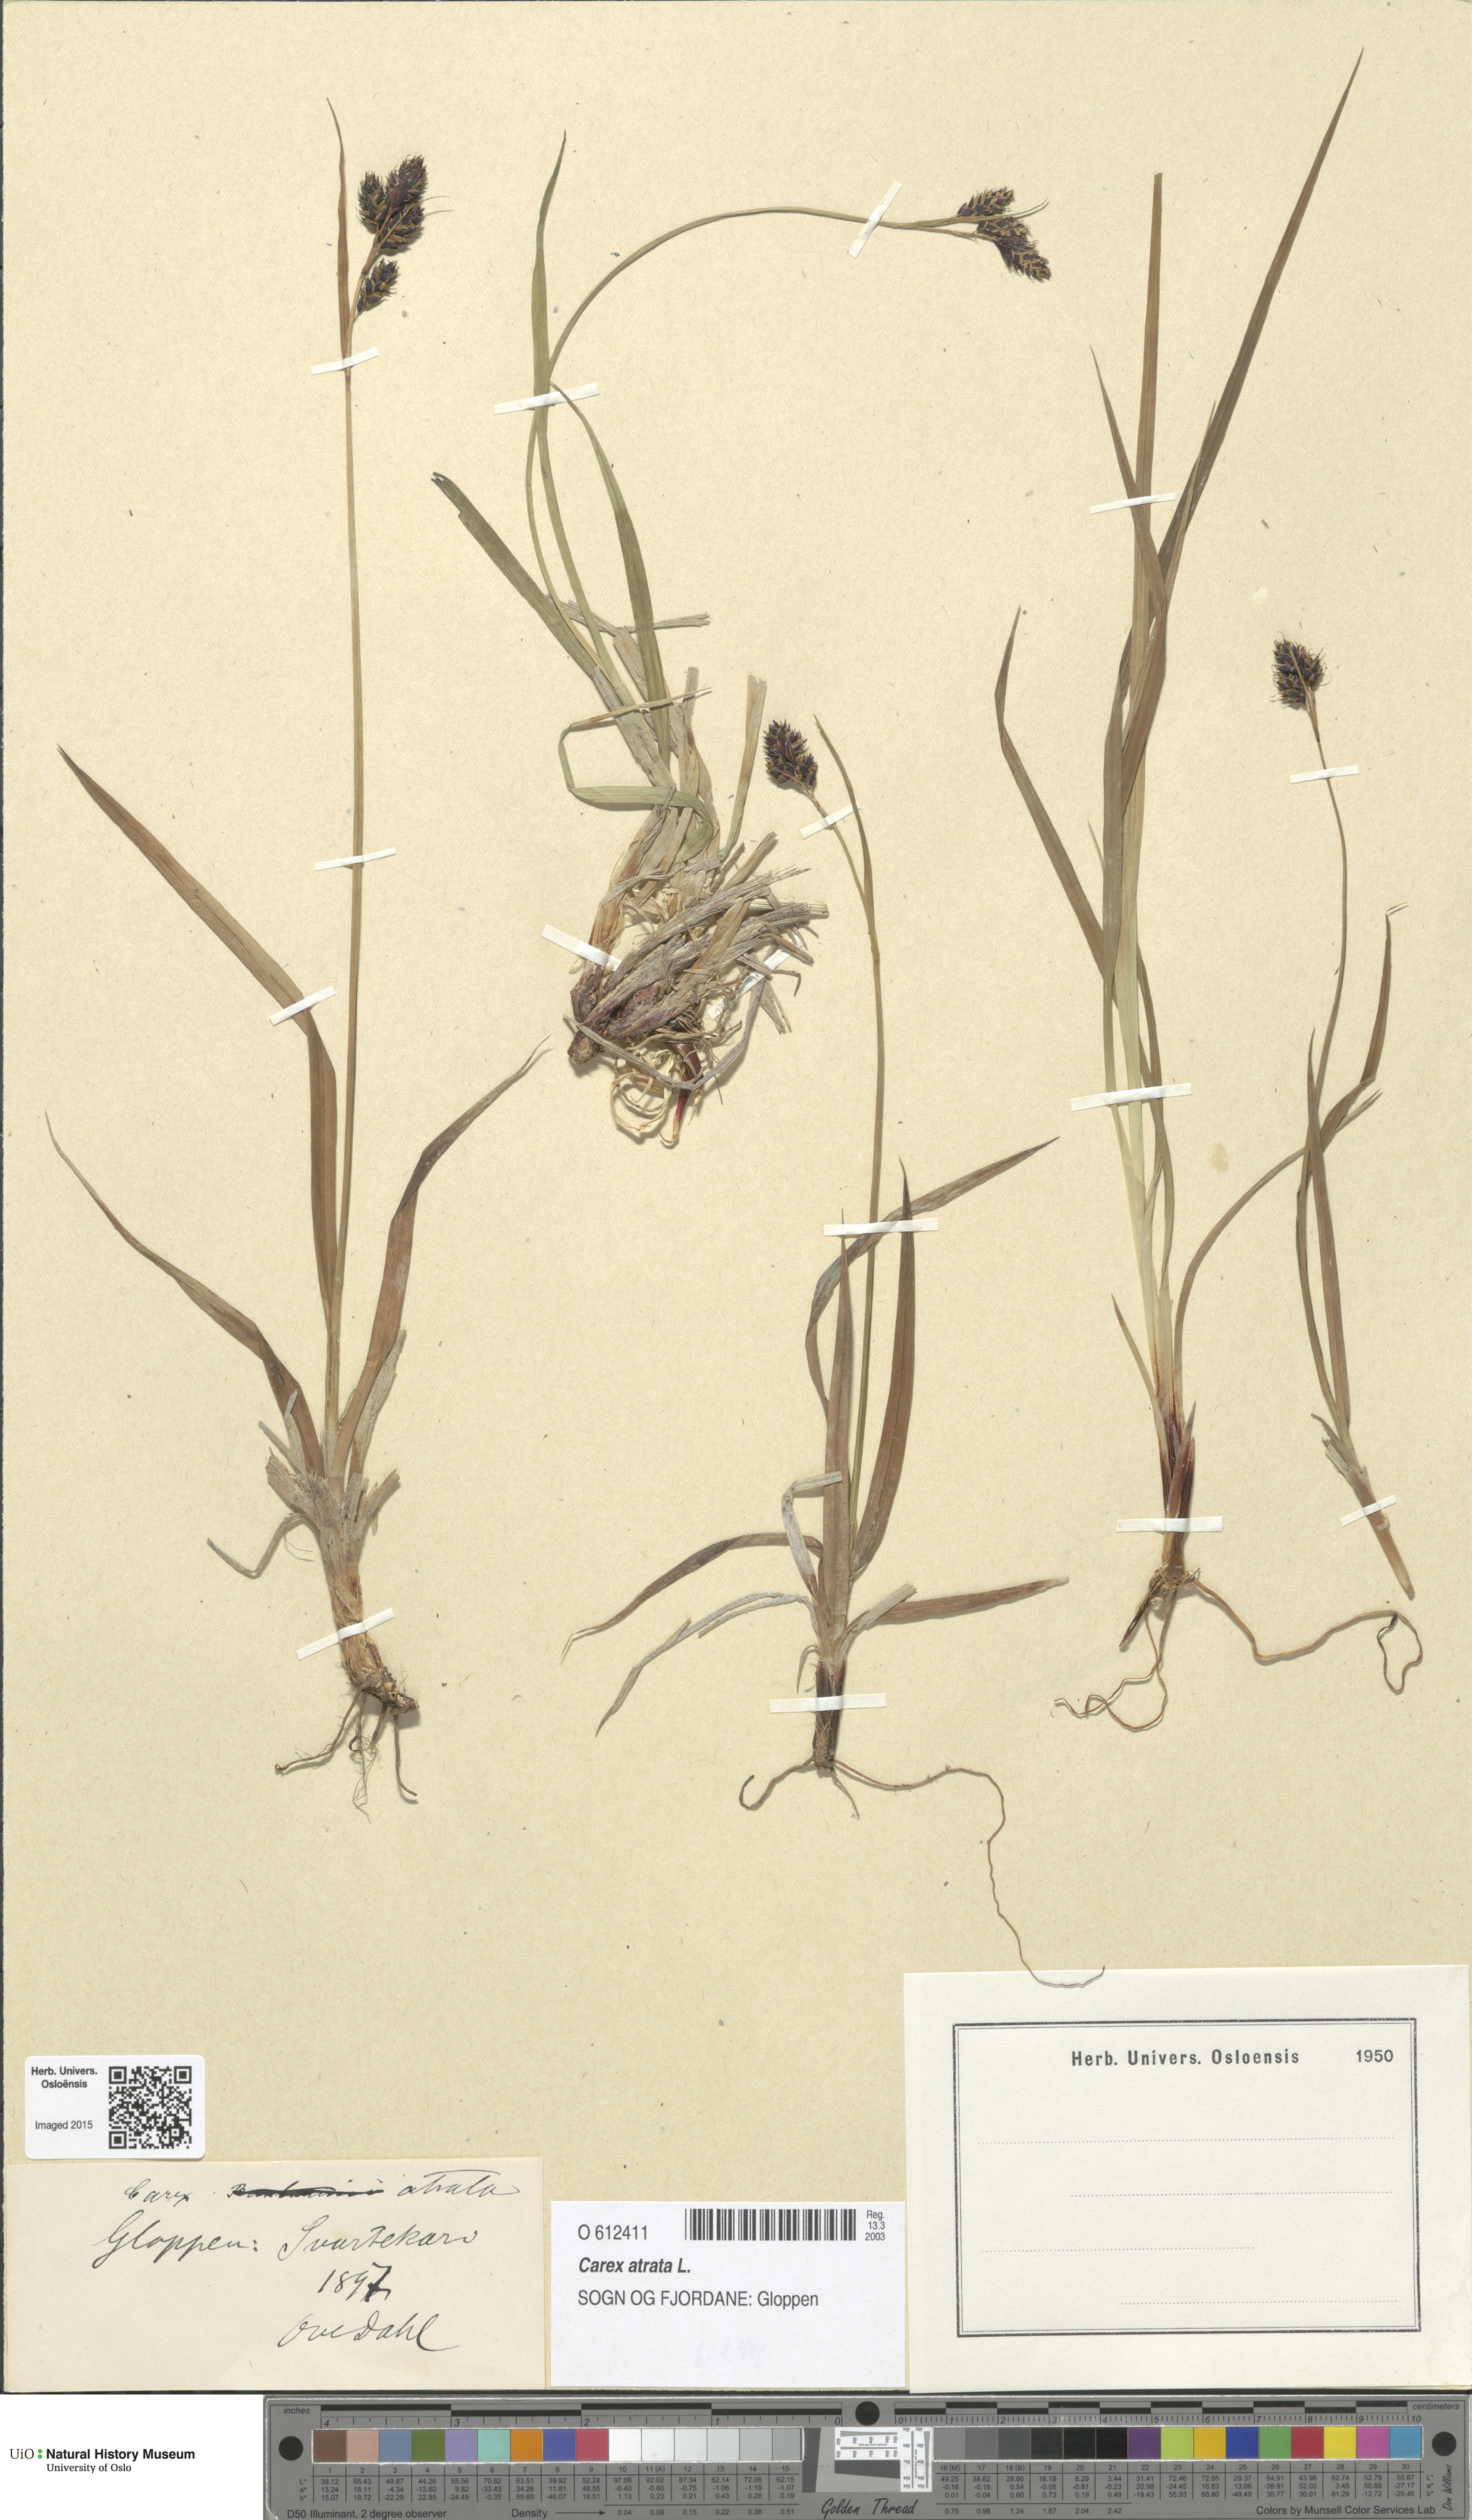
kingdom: Plantae
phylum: Tracheophyta
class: Liliopsida
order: Poales
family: Cyperaceae
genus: Carex
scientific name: Carex atrata
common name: Black alpine sedge
